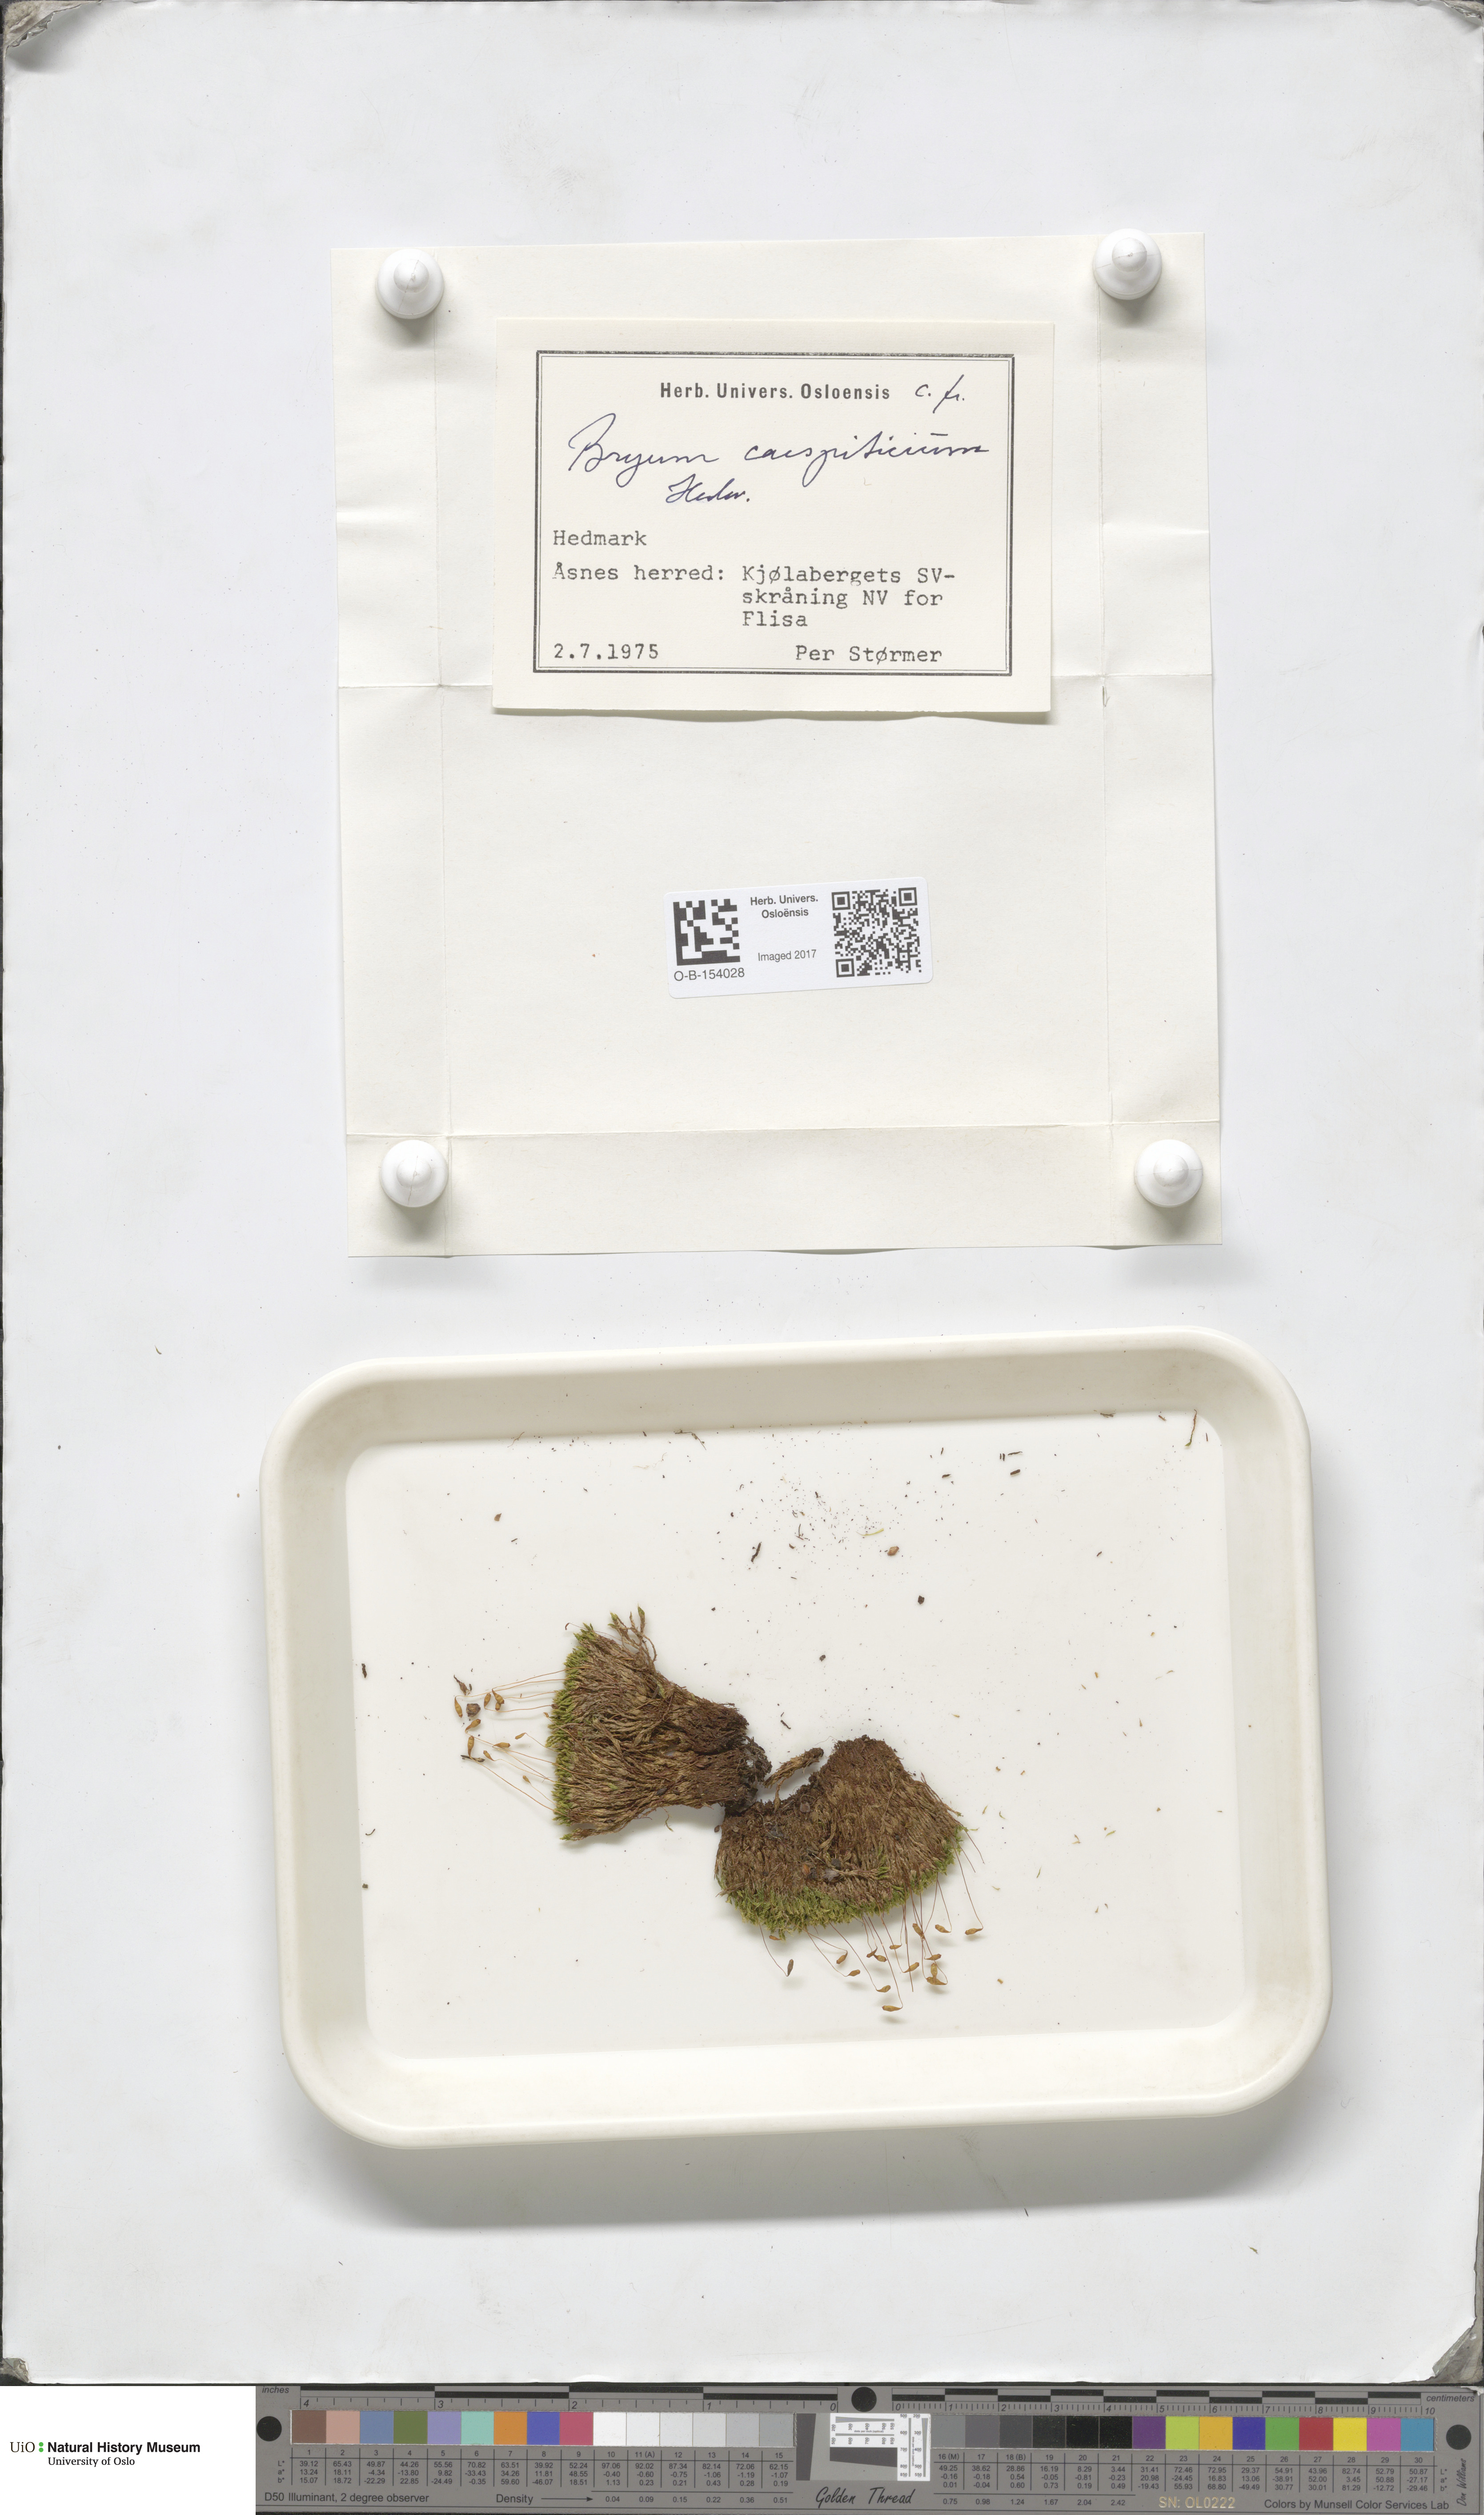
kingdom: Plantae
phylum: Bryophyta
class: Bryopsida
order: Bryales
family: Bryaceae
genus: Gemmabryum
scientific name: Gemmabryum caespiticium
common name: Handbell moss
